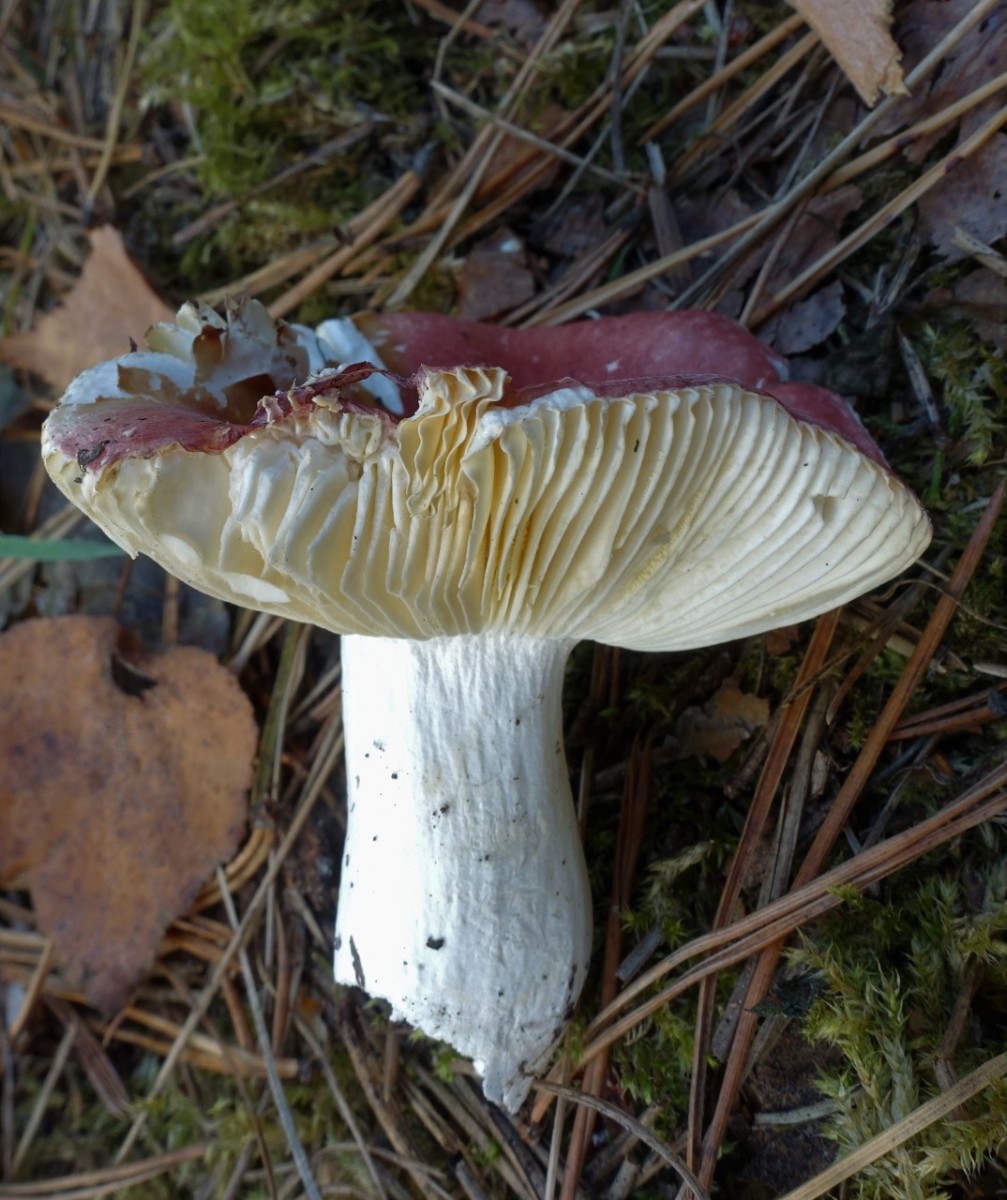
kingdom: Fungi
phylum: Basidiomycota
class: Agaricomycetes
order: Russulales
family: Russulaceae
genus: Russula
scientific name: Russula cessans
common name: fyrre-skørhat
